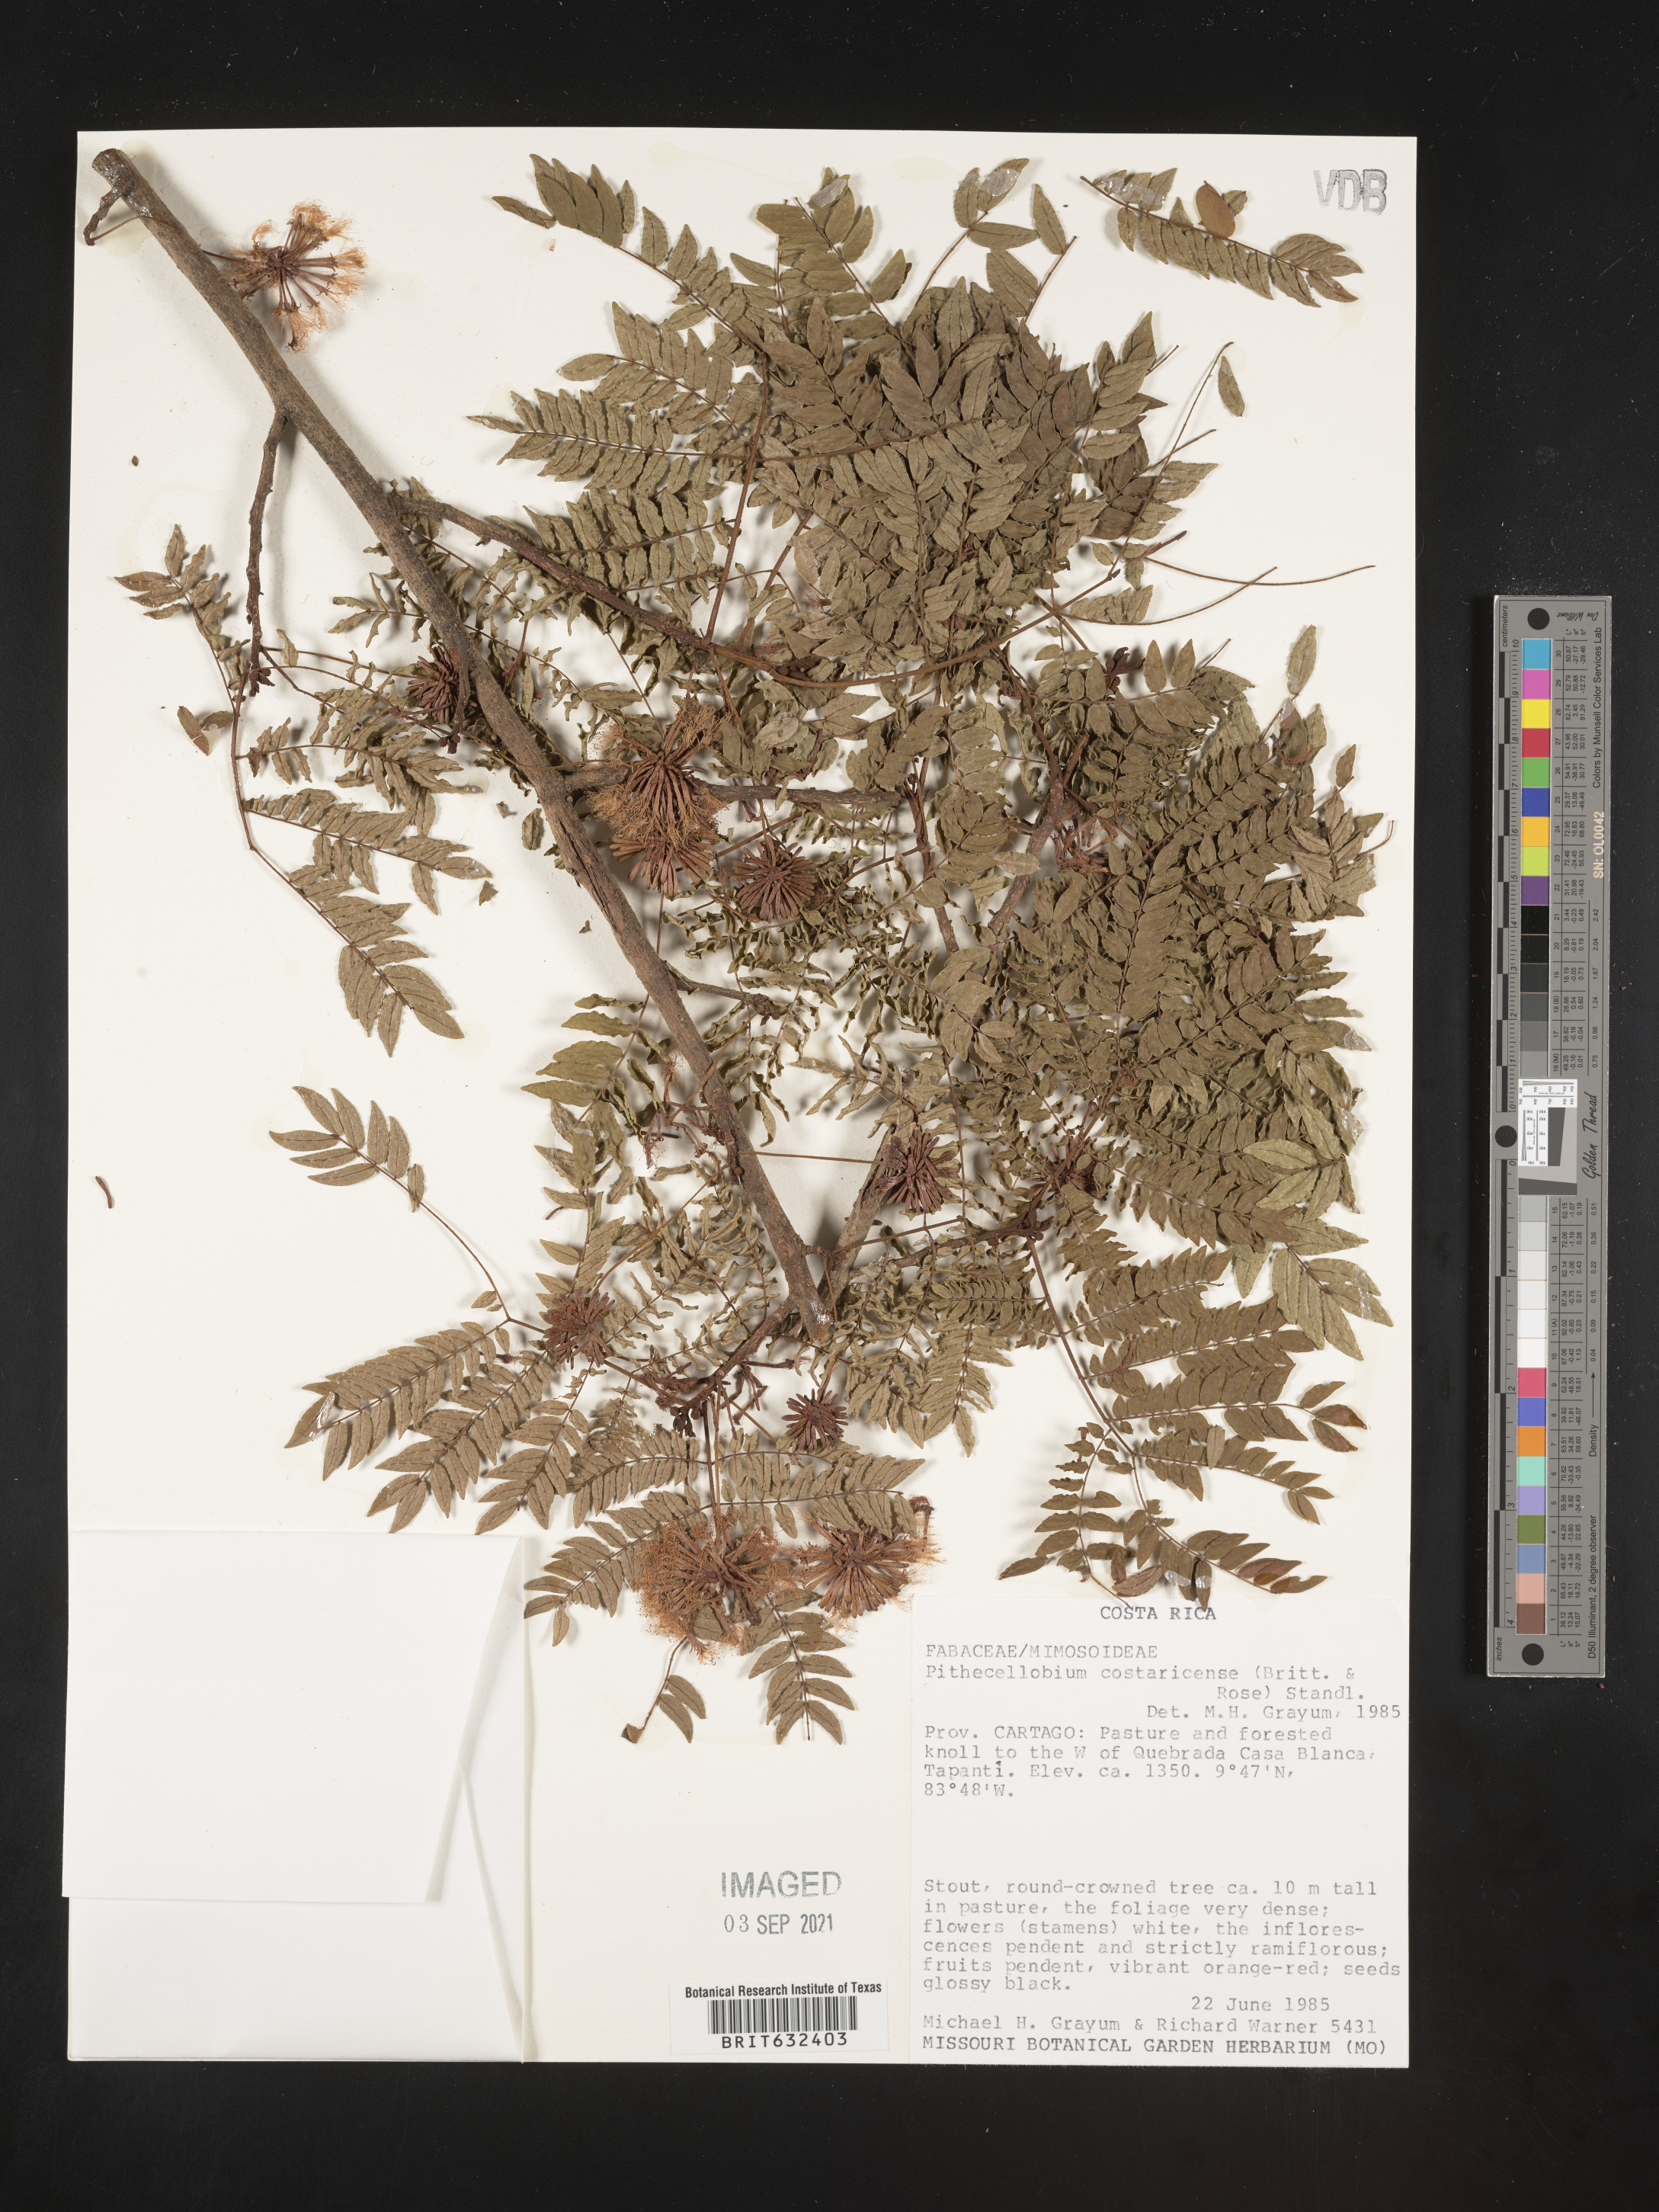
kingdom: Plantae
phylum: Tracheophyta
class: Magnoliopsida
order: Fabales
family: Fabaceae
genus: Pithecellobium
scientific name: Pithecellobium
